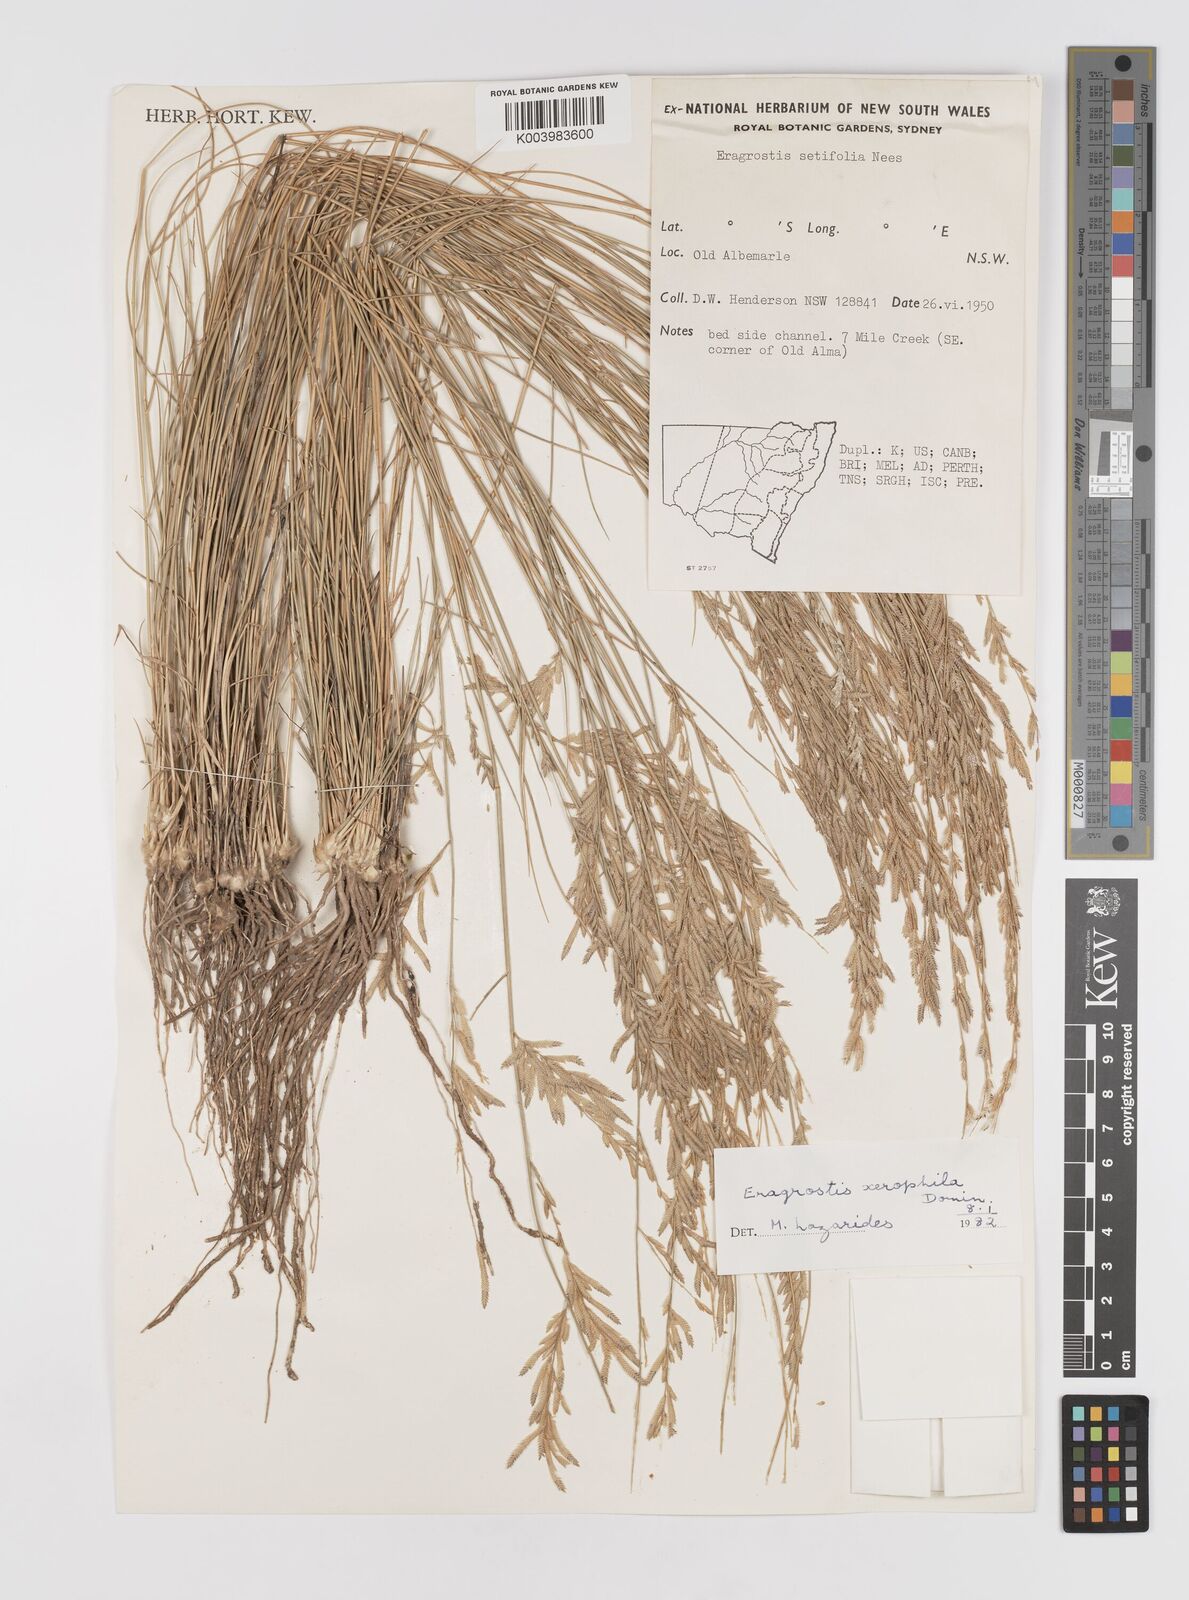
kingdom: Plantae
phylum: Tracheophyta
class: Liliopsida
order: Poales
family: Poaceae
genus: Eragrostis
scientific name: Eragrostis xerophila
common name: Wire wandarrie grass
